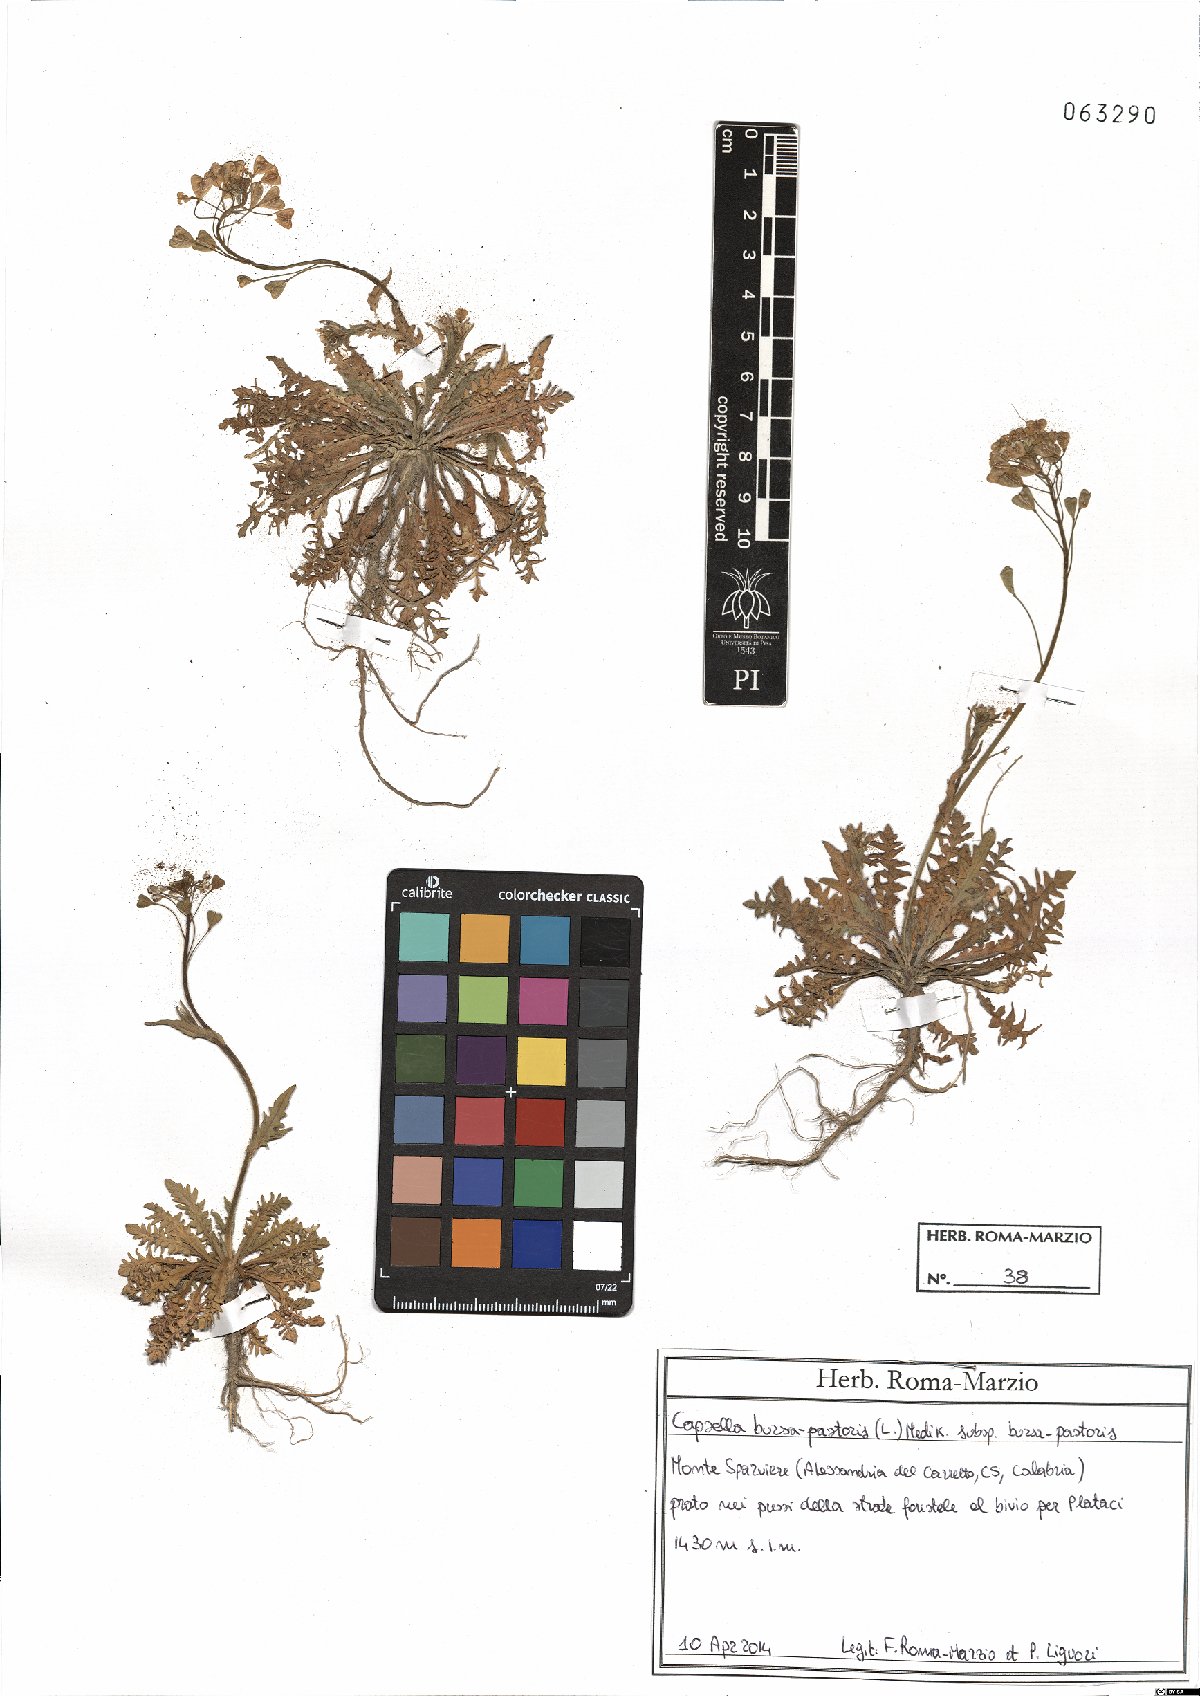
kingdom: Plantae
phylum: Tracheophyta
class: Magnoliopsida
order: Brassicales
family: Brassicaceae
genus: Capsella
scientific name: Capsella bursa-pastoris
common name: Shepherd's purse
